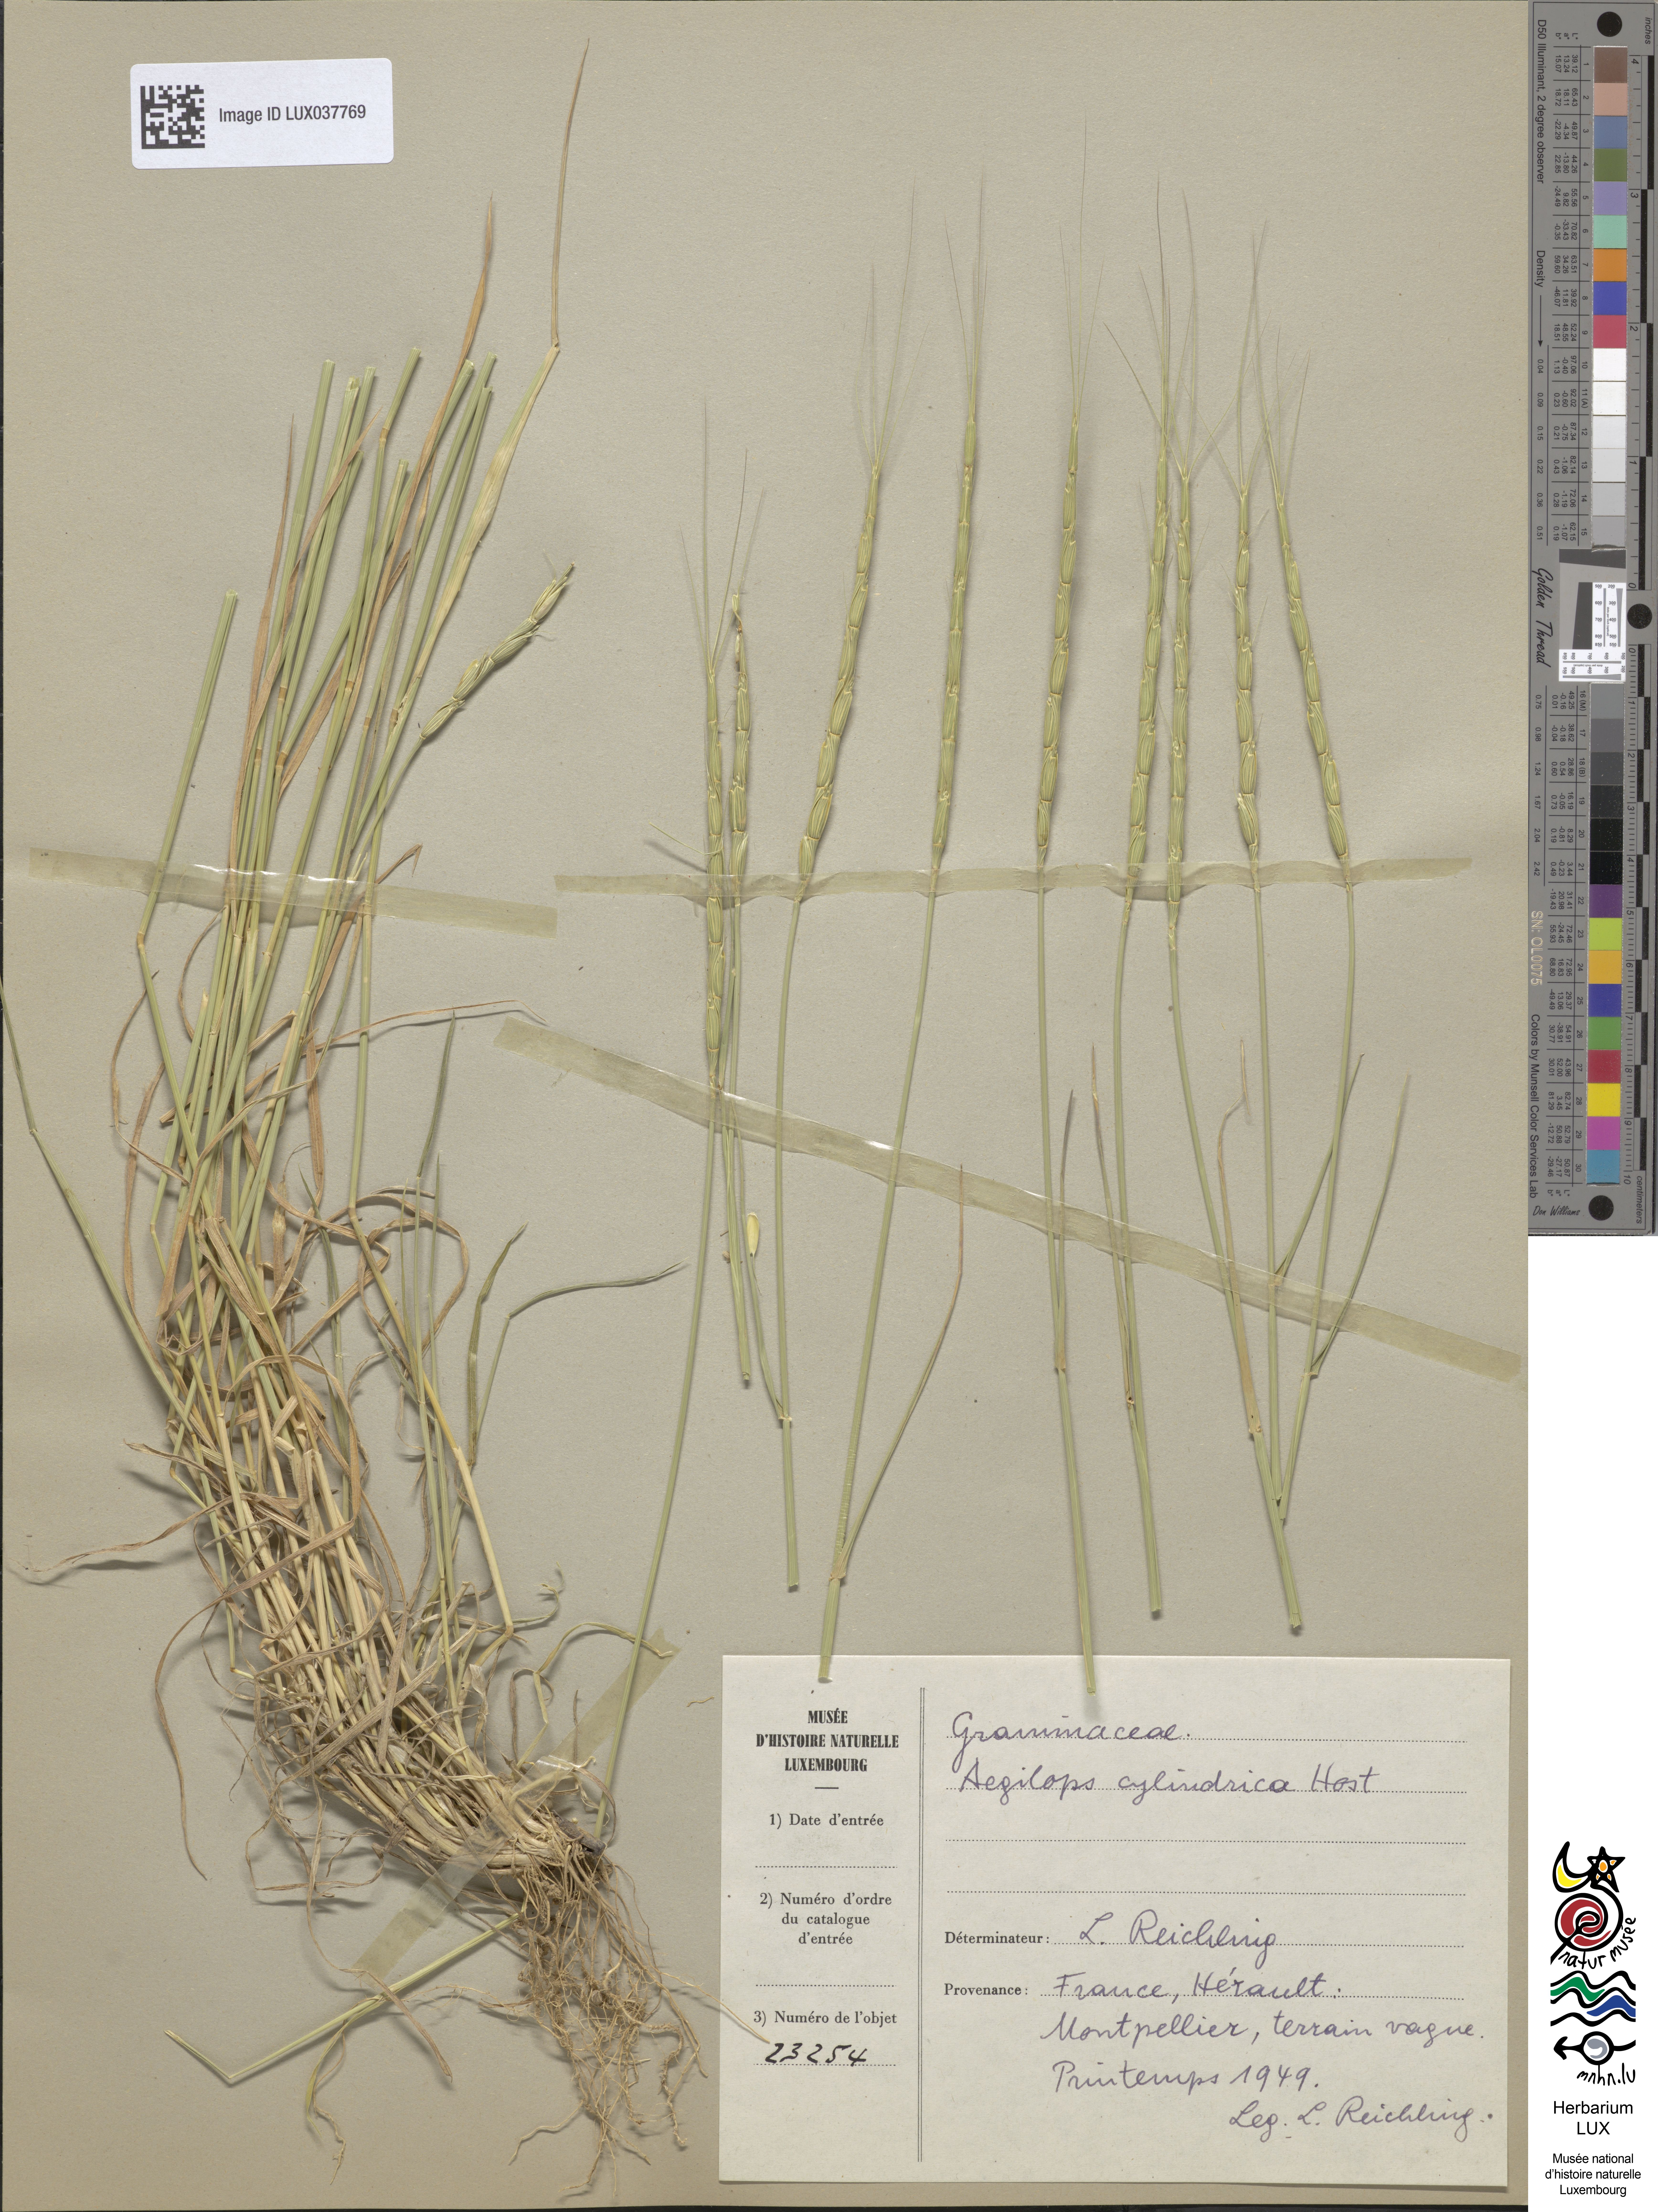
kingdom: Plantae
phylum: Tracheophyta
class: Liliopsida
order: Poales
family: Poaceae
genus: Aegilops
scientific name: Aegilops cylindrica
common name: Jointed goatgrass
